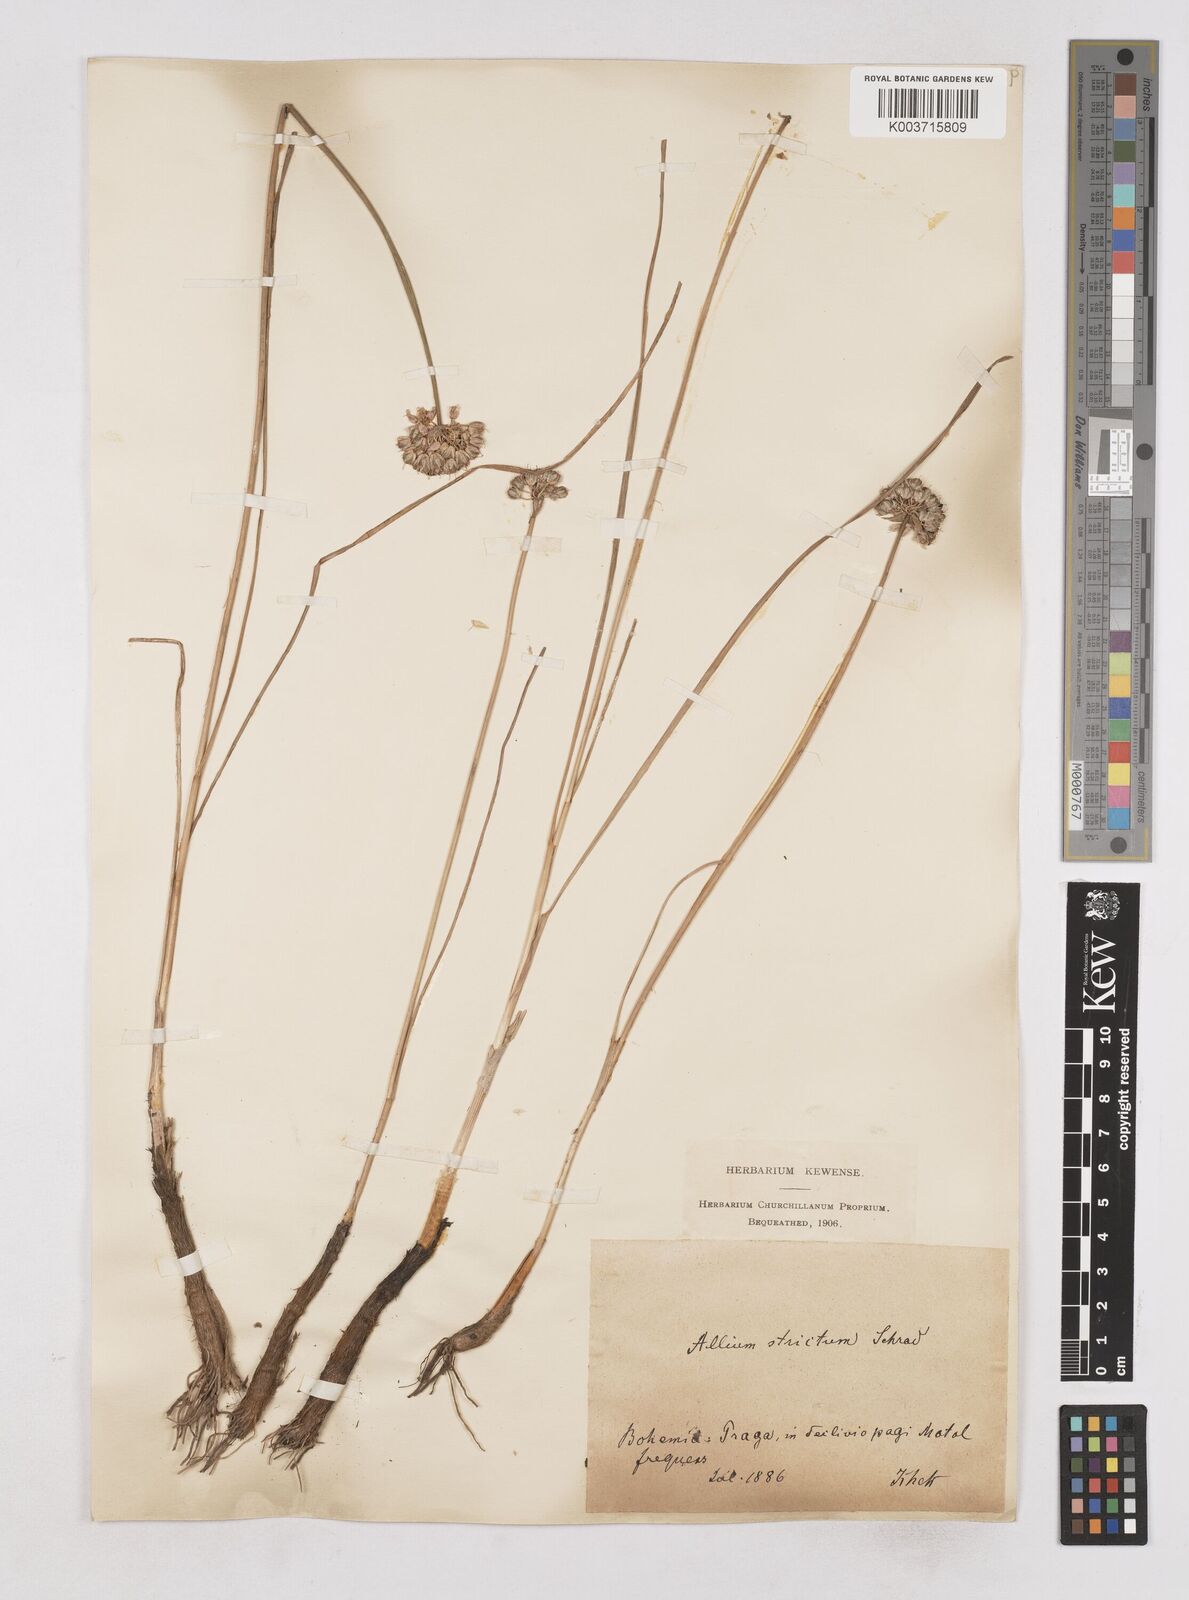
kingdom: Plantae
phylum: Tracheophyta
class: Liliopsida
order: Asparagales
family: Amaryllidaceae
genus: Allium
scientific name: Allium strictum
